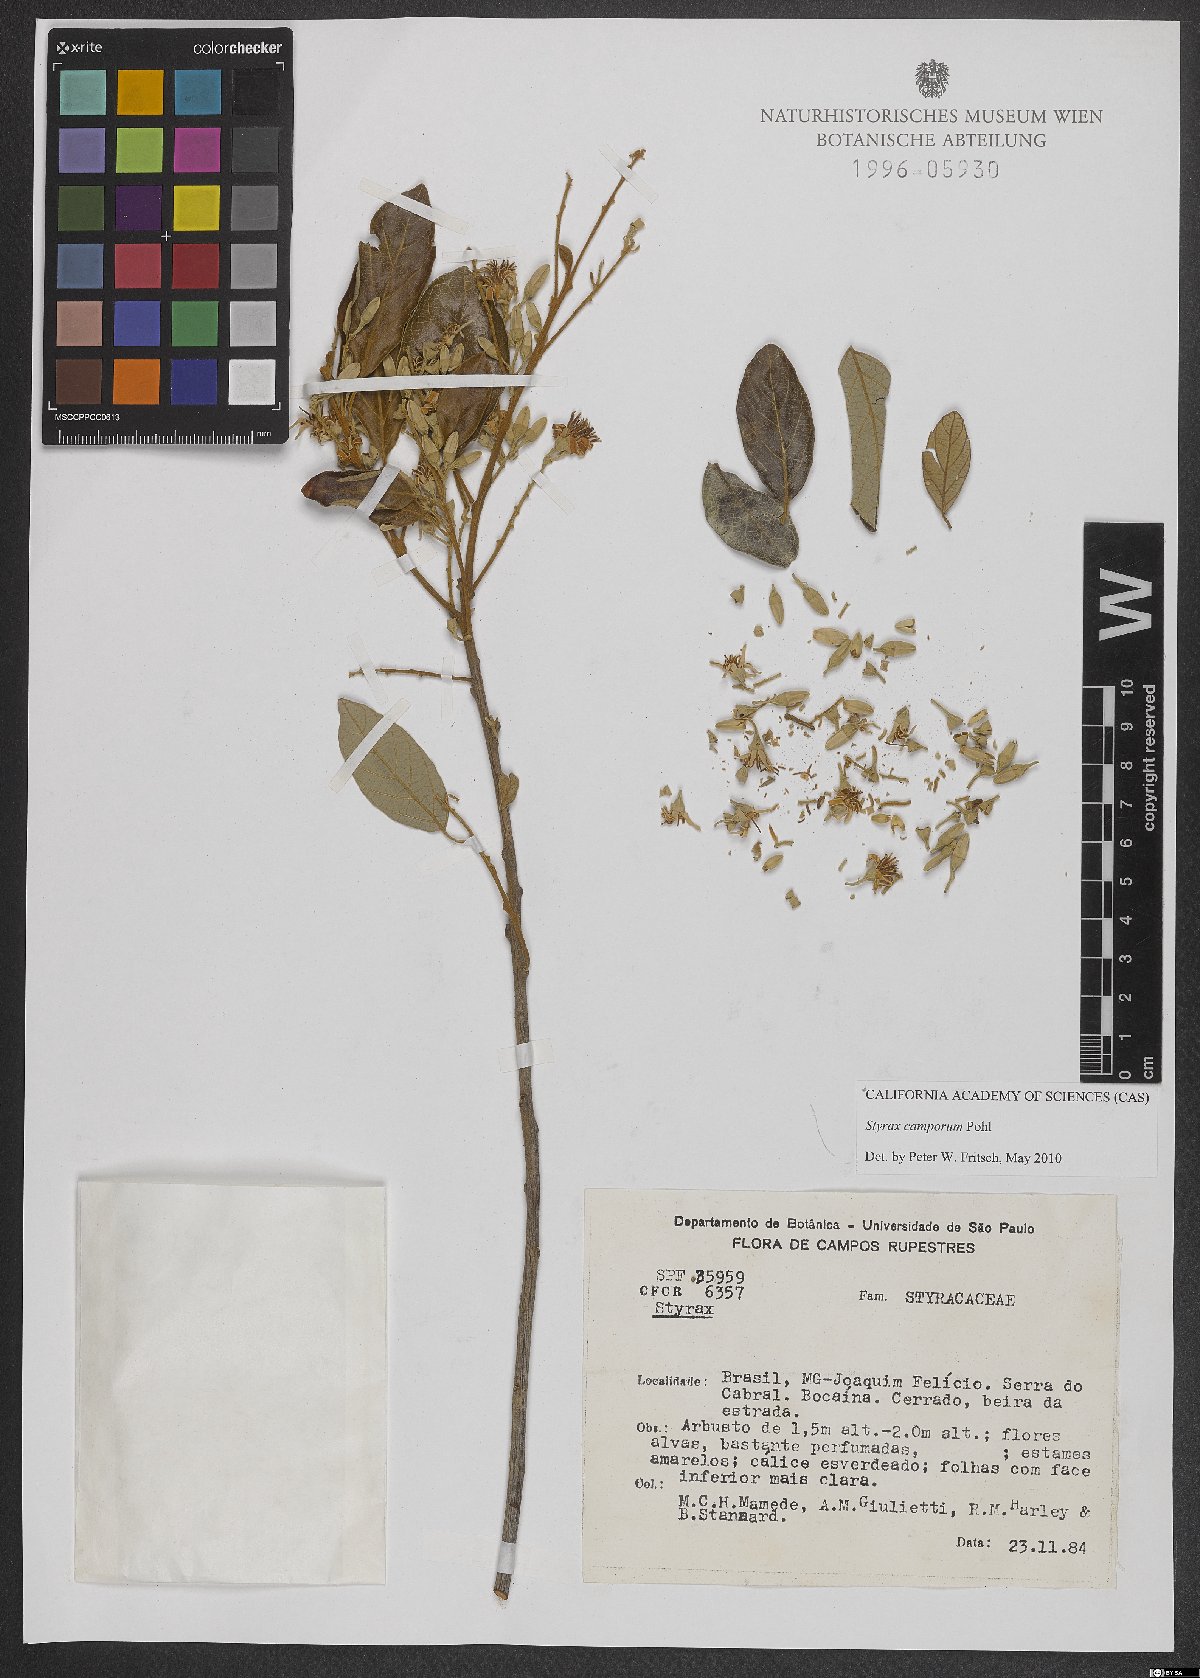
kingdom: Plantae
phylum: Tracheophyta
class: Magnoliopsida
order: Ericales
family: Styracaceae
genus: Styrax
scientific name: Styrax camporum
